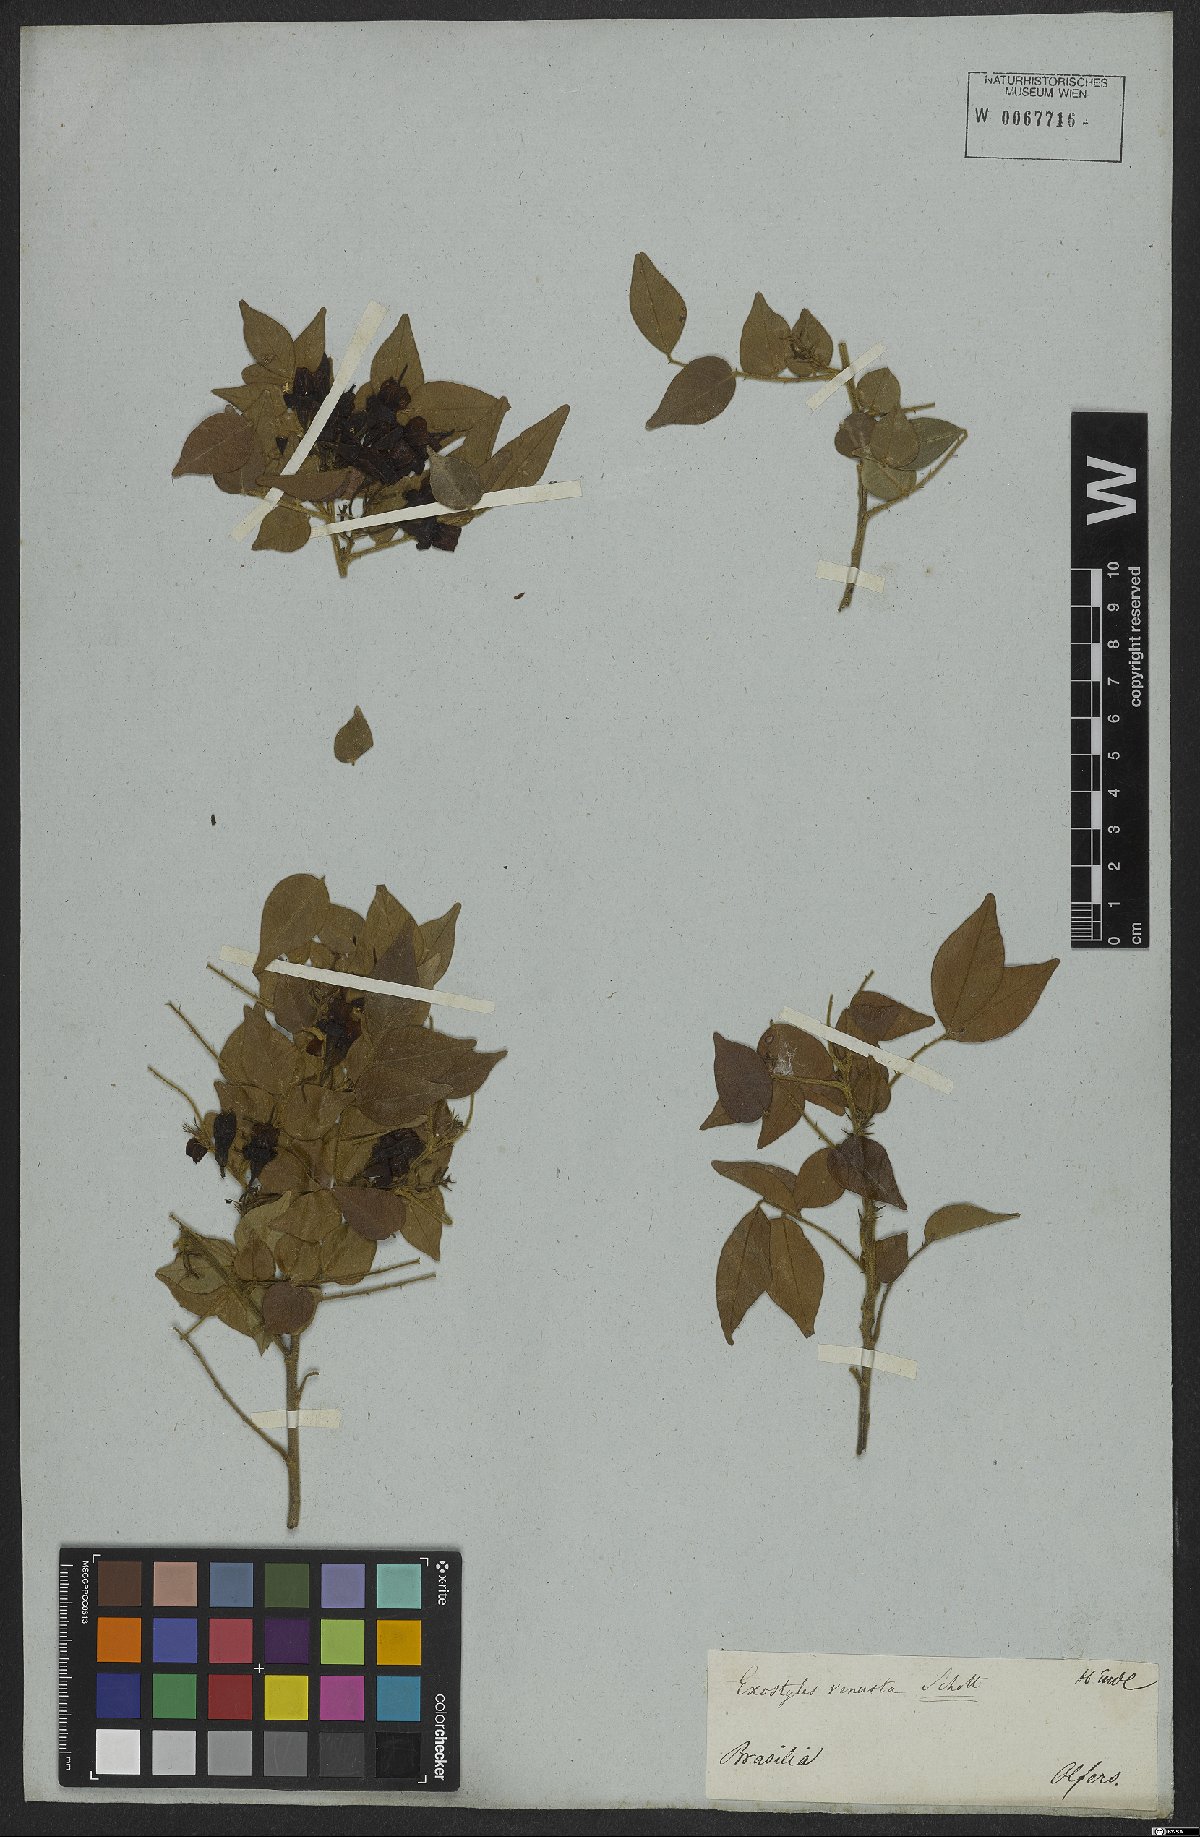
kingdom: Plantae
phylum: Tracheophyta
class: Magnoliopsida
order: Fabales
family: Fabaceae
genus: Exostyles
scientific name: Exostyles venusta
